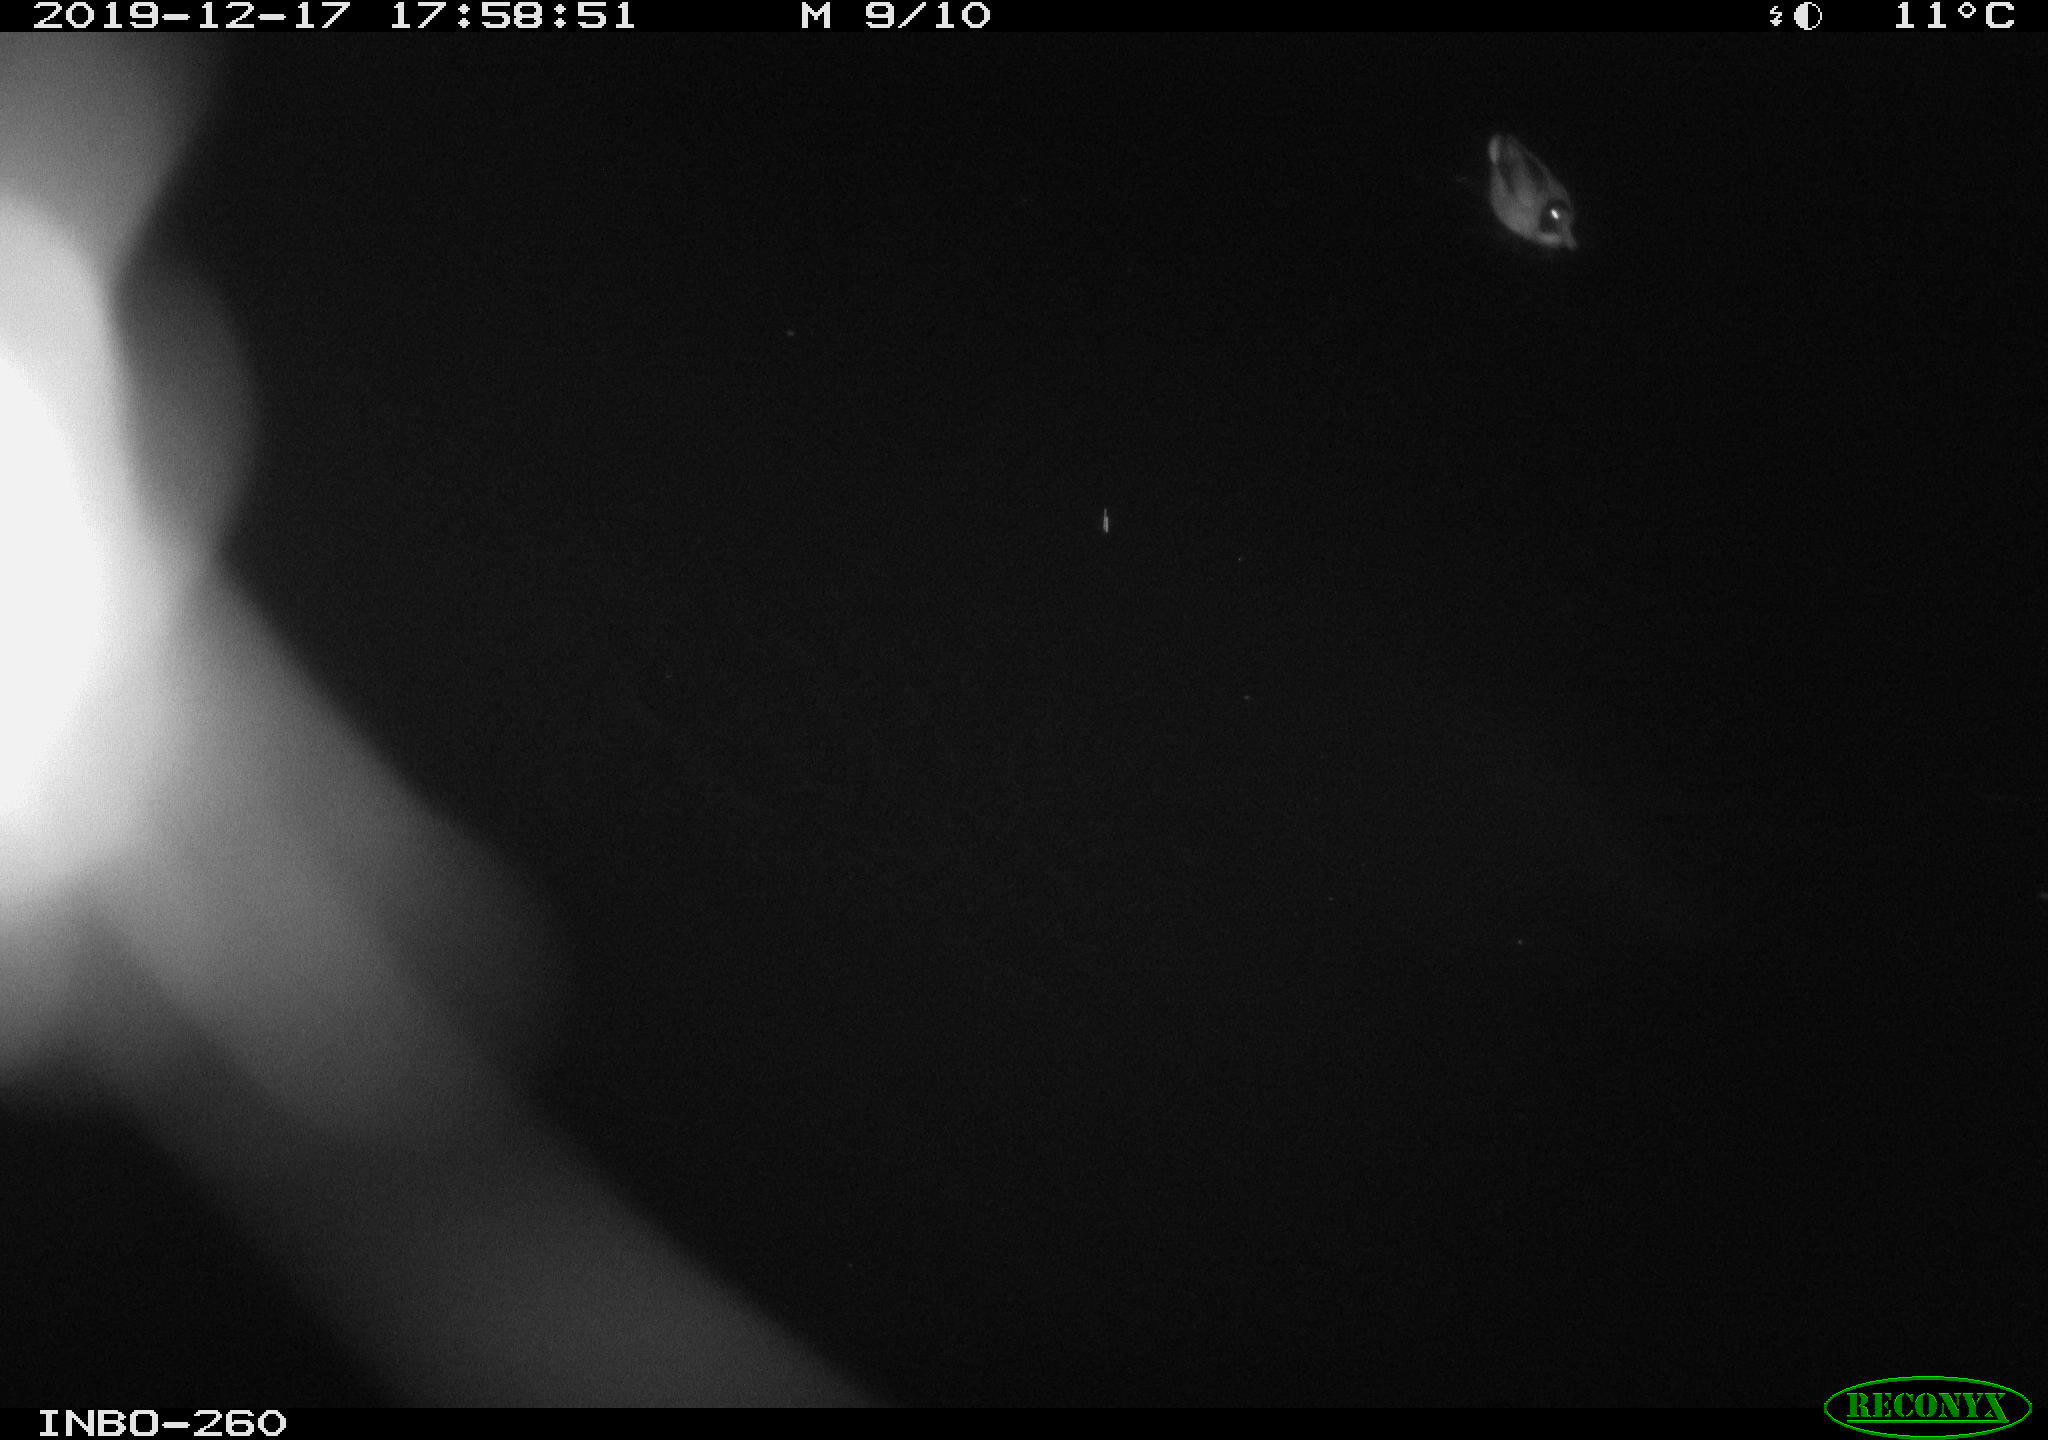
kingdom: Animalia
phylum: Chordata
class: Aves
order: Anseriformes
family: Anatidae
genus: Anas
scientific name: Anas platyrhynchos
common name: Mallard
